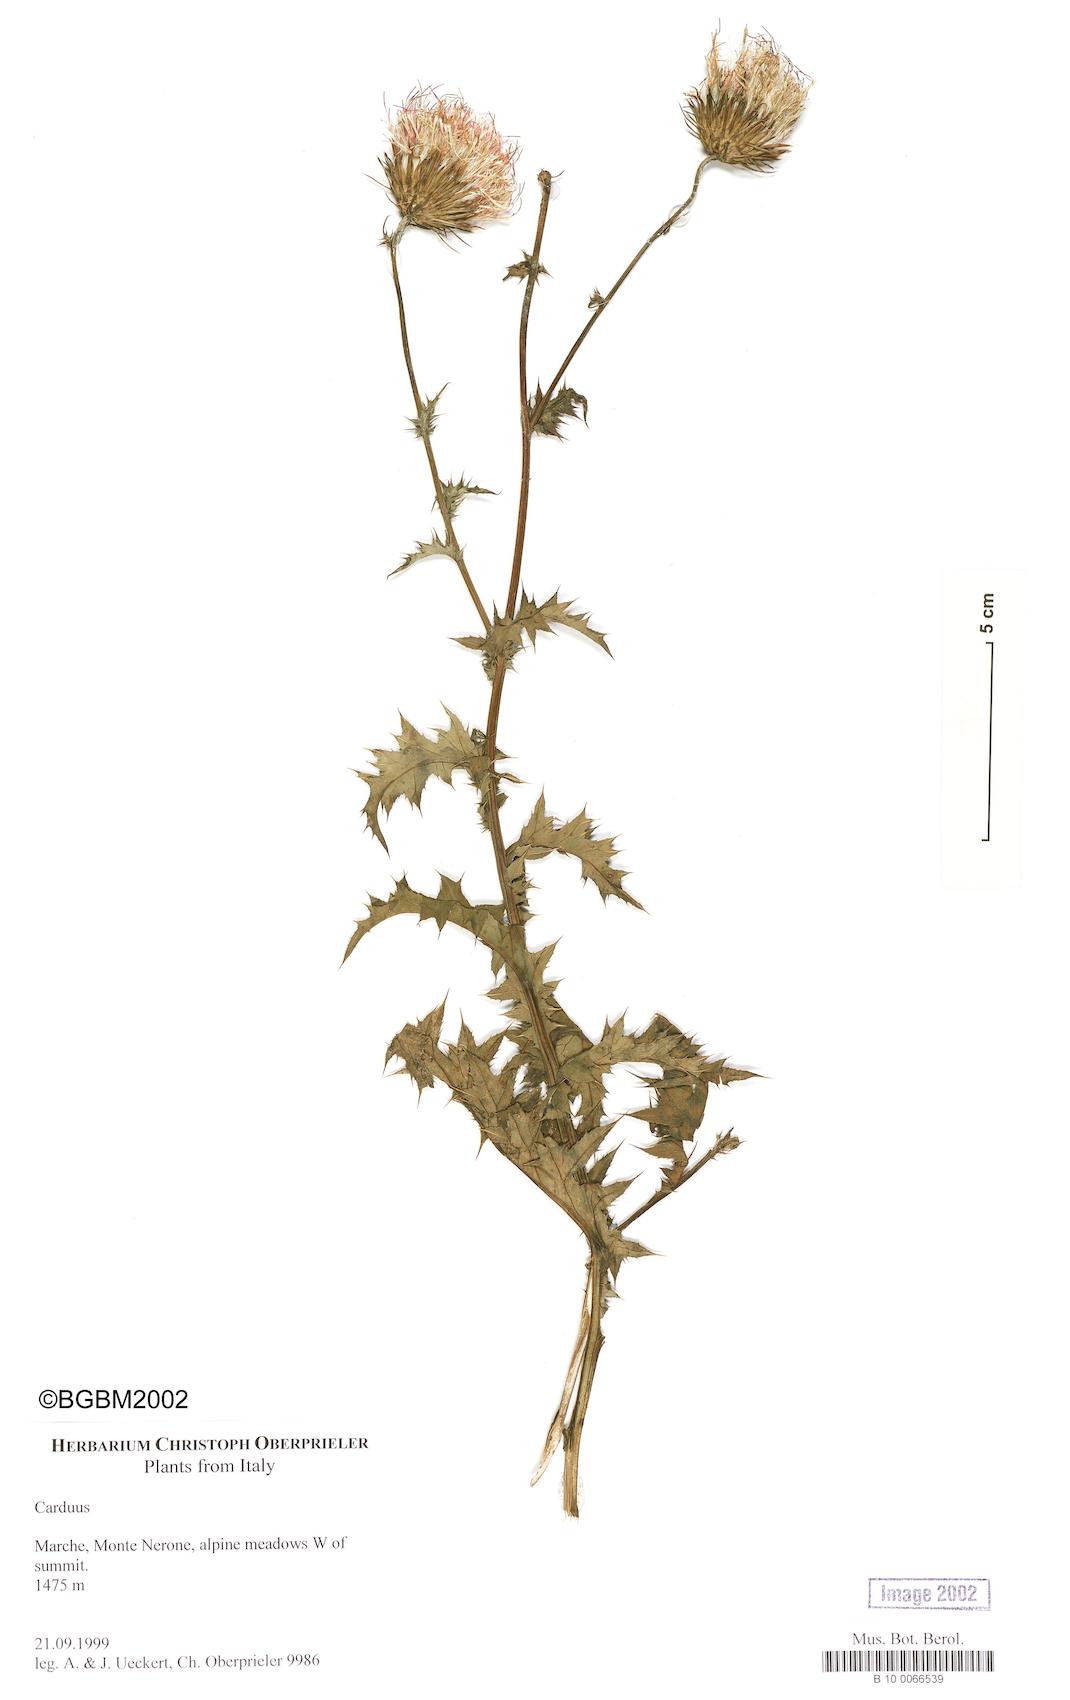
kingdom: Plantae
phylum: Tracheophyta
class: Magnoliopsida
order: Asterales
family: Asteraceae
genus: Carduus
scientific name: Carduus
